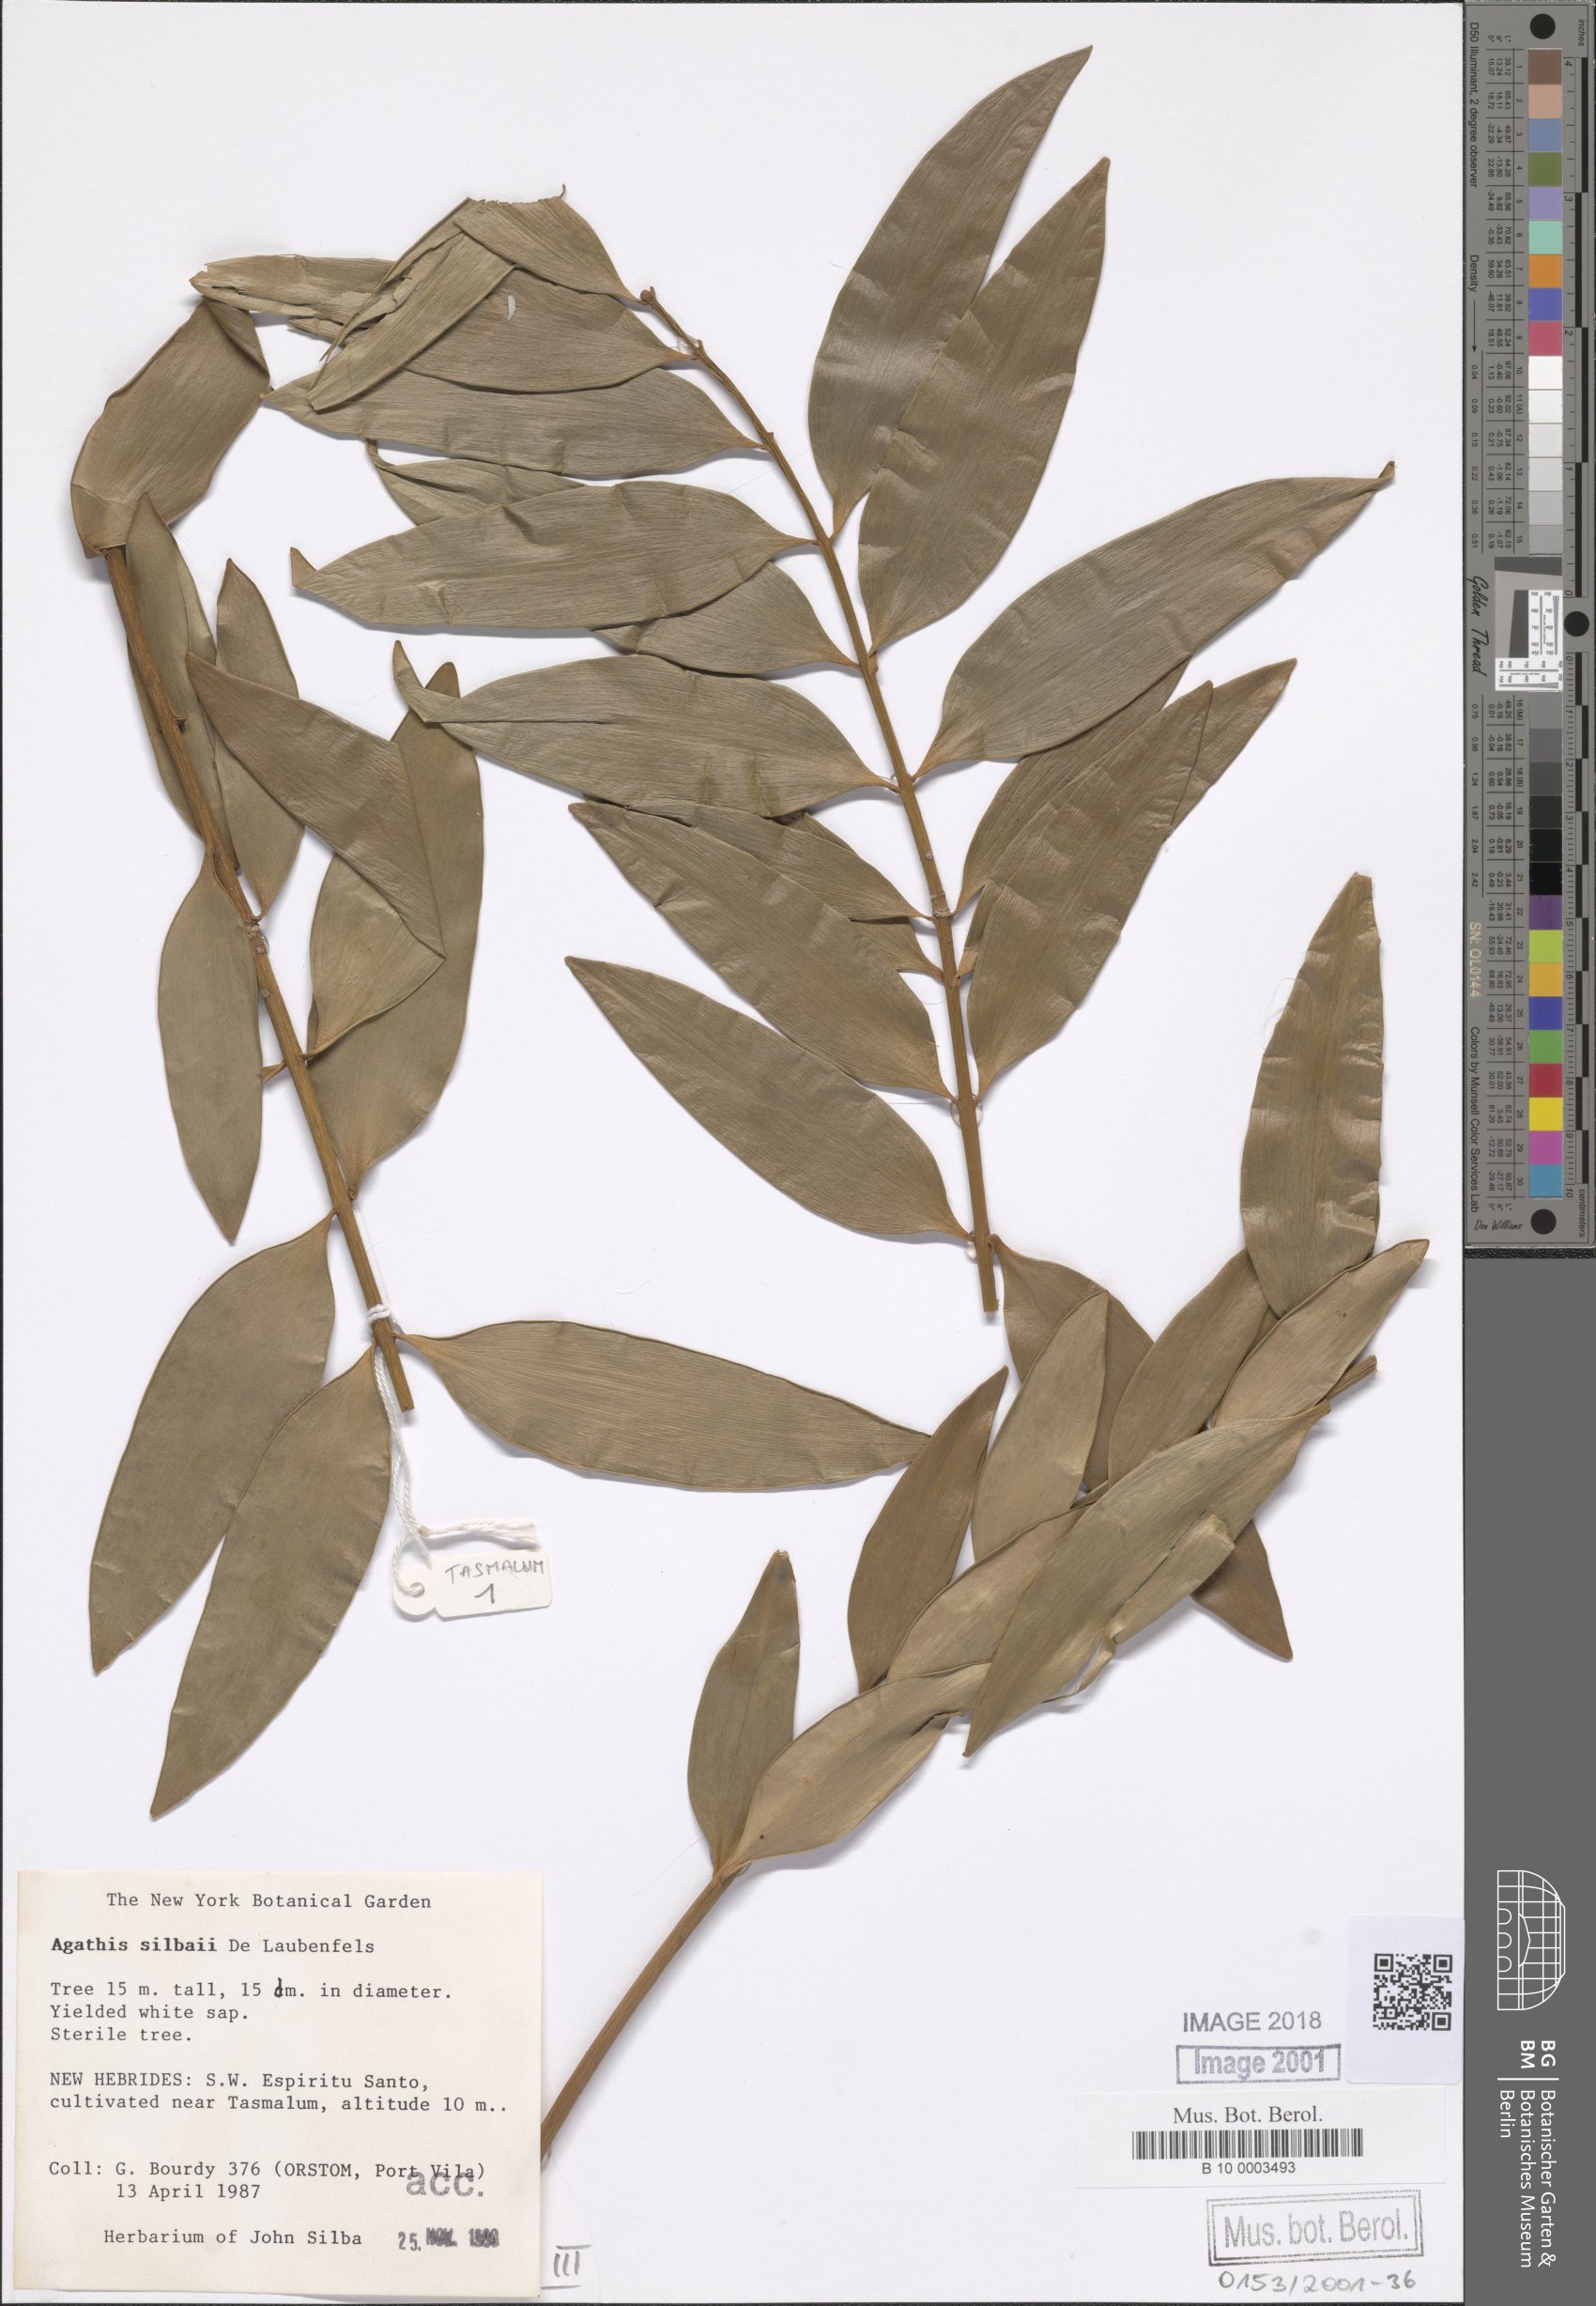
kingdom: Plantae
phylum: Tracheophyta
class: Pinopsida
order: Pinales
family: Araucariaceae
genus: Agathis
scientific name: Agathis silbae
